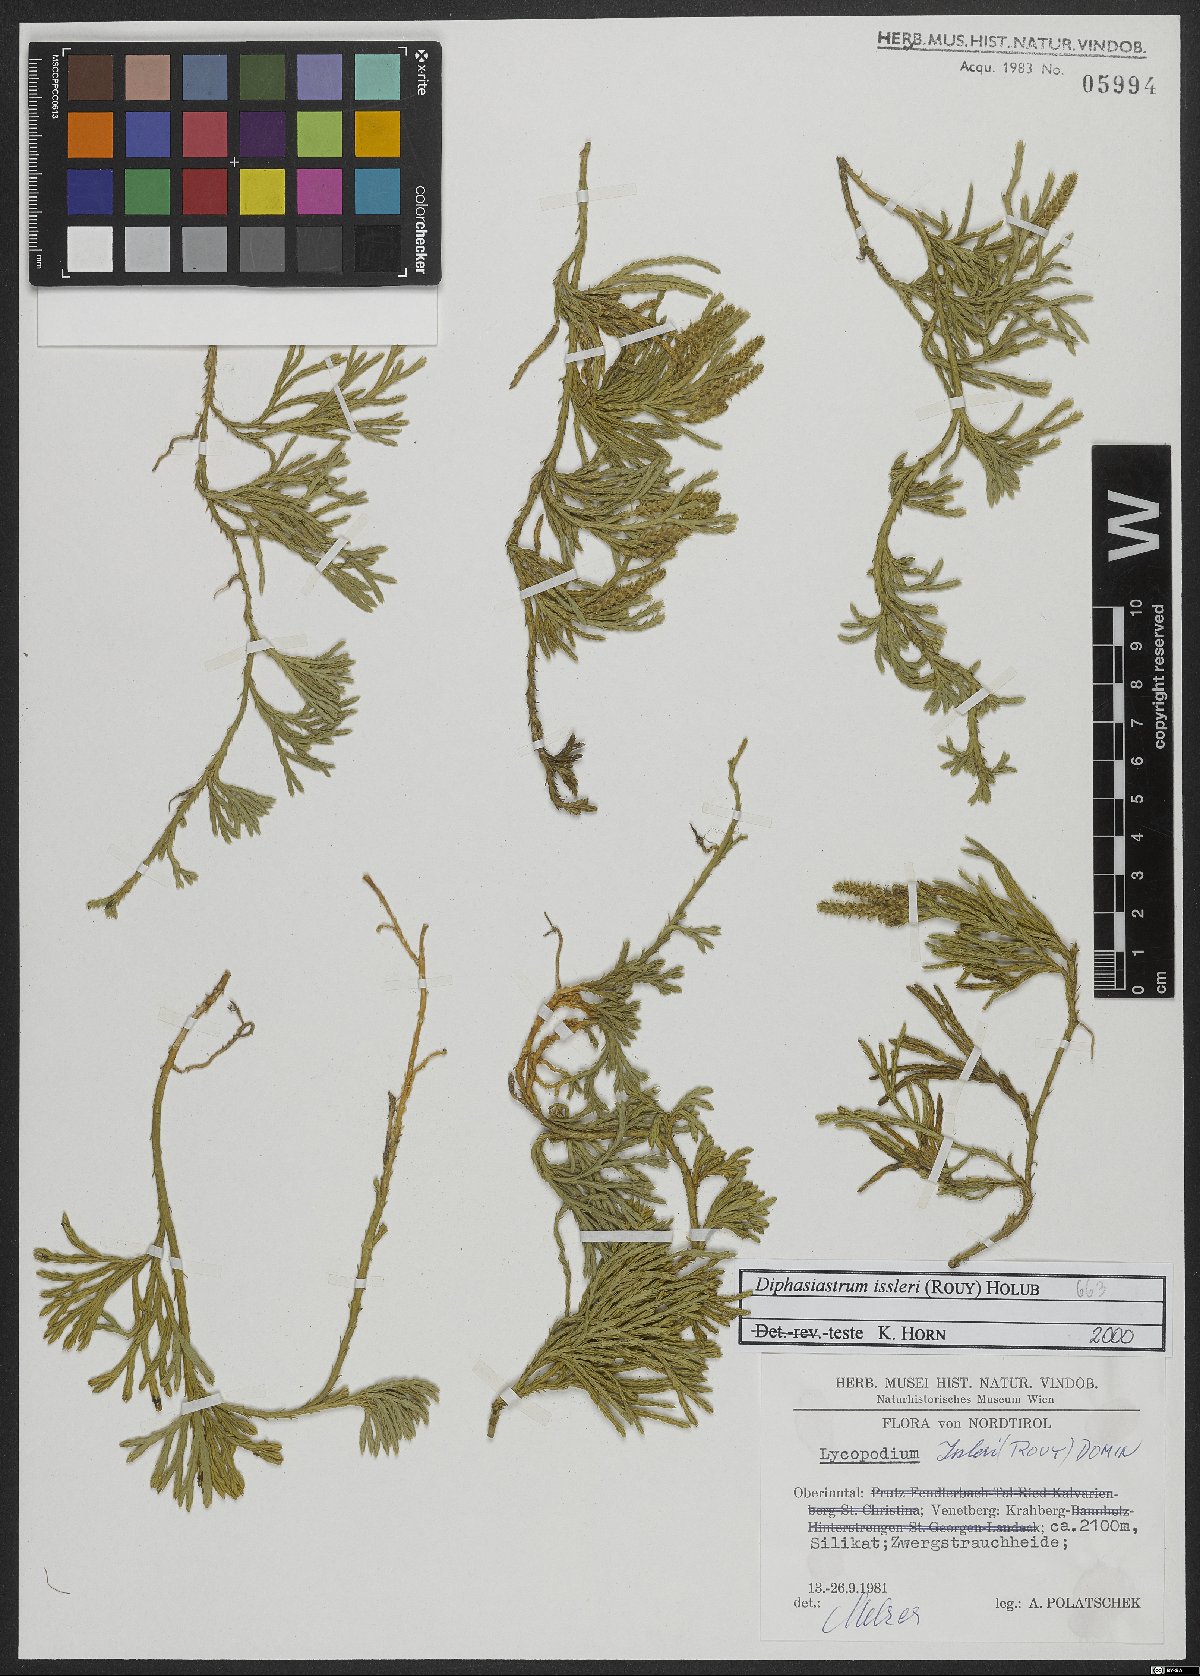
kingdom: Plantae
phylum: Tracheophyta
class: Lycopodiopsida
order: Lycopodiales
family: Lycopodiaceae
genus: Diphasiastrum
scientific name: Diphasiastrum issleri
